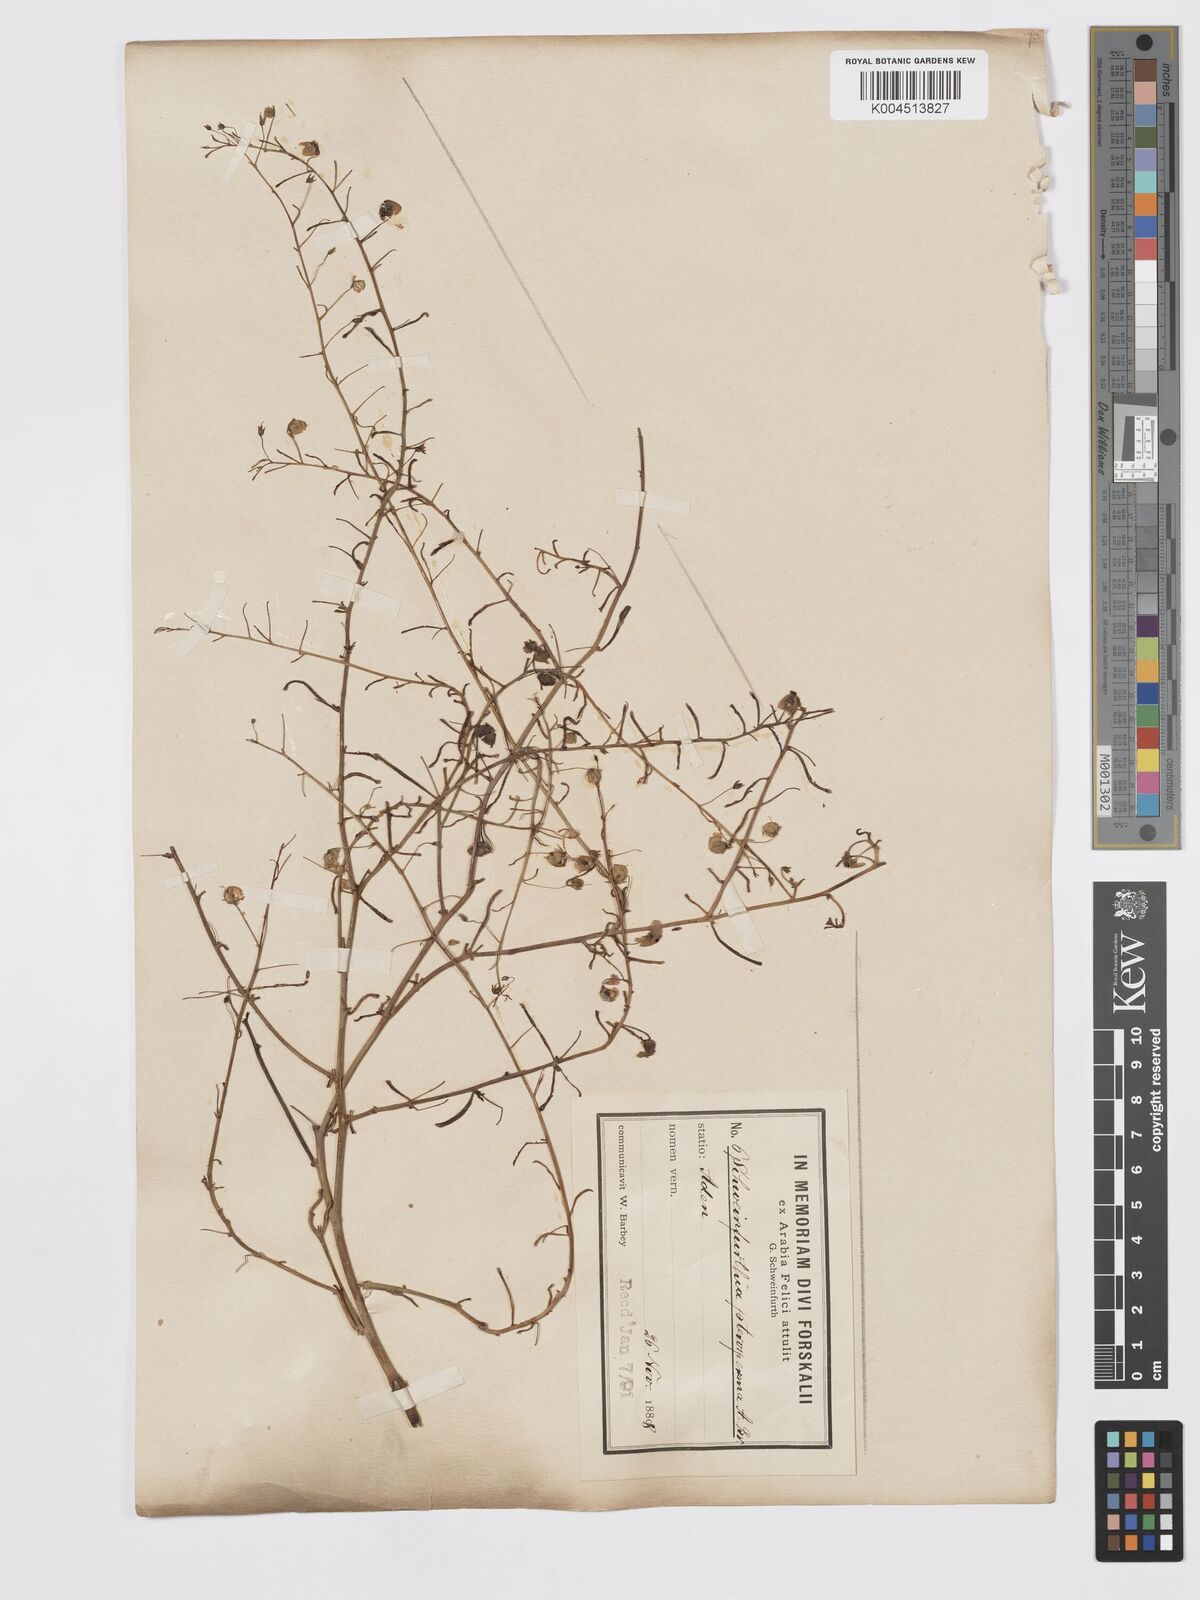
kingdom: Plantae
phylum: Tracheophyta
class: Magnoliopsida
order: Lamiales
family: Plantaginaceae
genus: Schweinfurthia
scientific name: Schweinfurthia pedicellata
